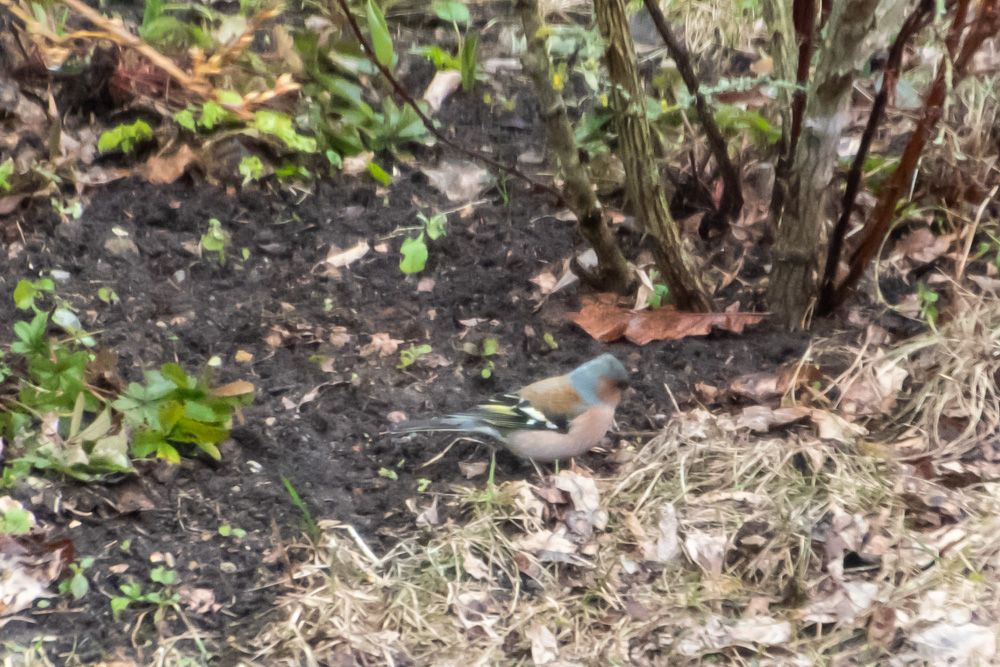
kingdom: Animalia
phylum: Chordata
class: Aves
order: Passeriformes
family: Fringillidae
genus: Fringilla
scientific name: Fringilla coelebs
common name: Common chaffinch
